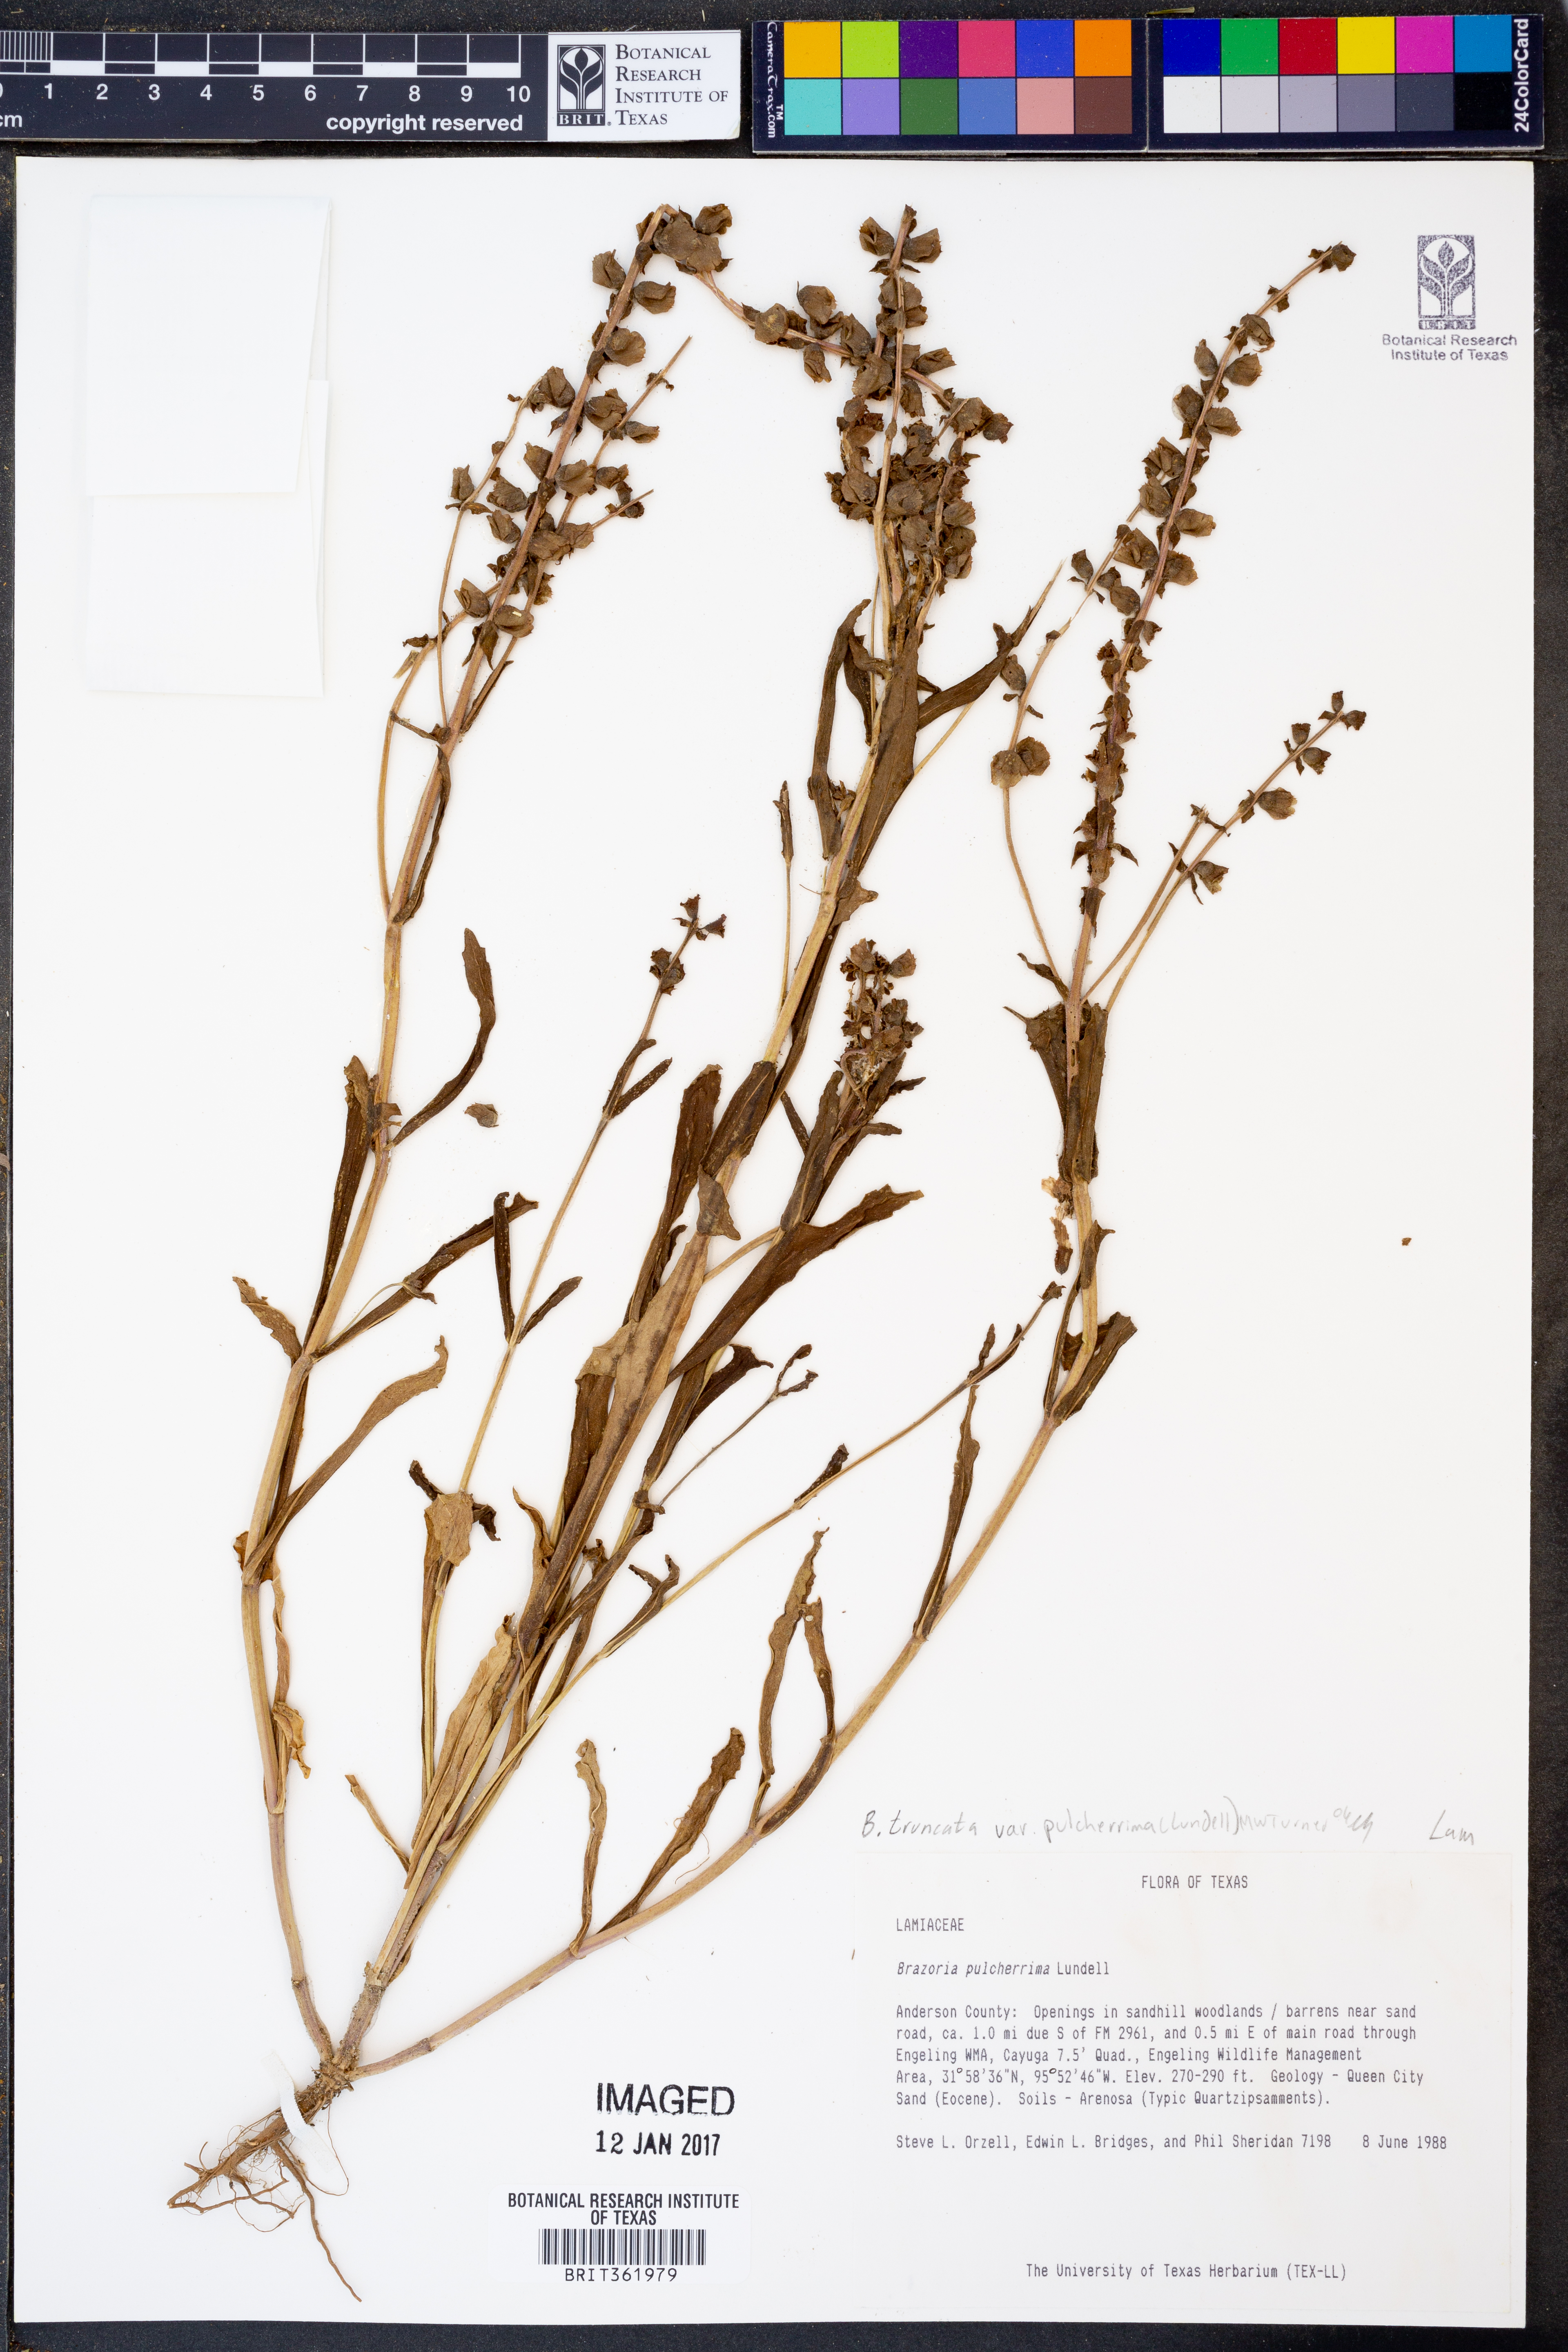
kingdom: Plantae
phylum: Tracheophyta
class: Magnoliopsida
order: Lamiales
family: Lamiaceae
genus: Brazoria
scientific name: Brazoria truncata
